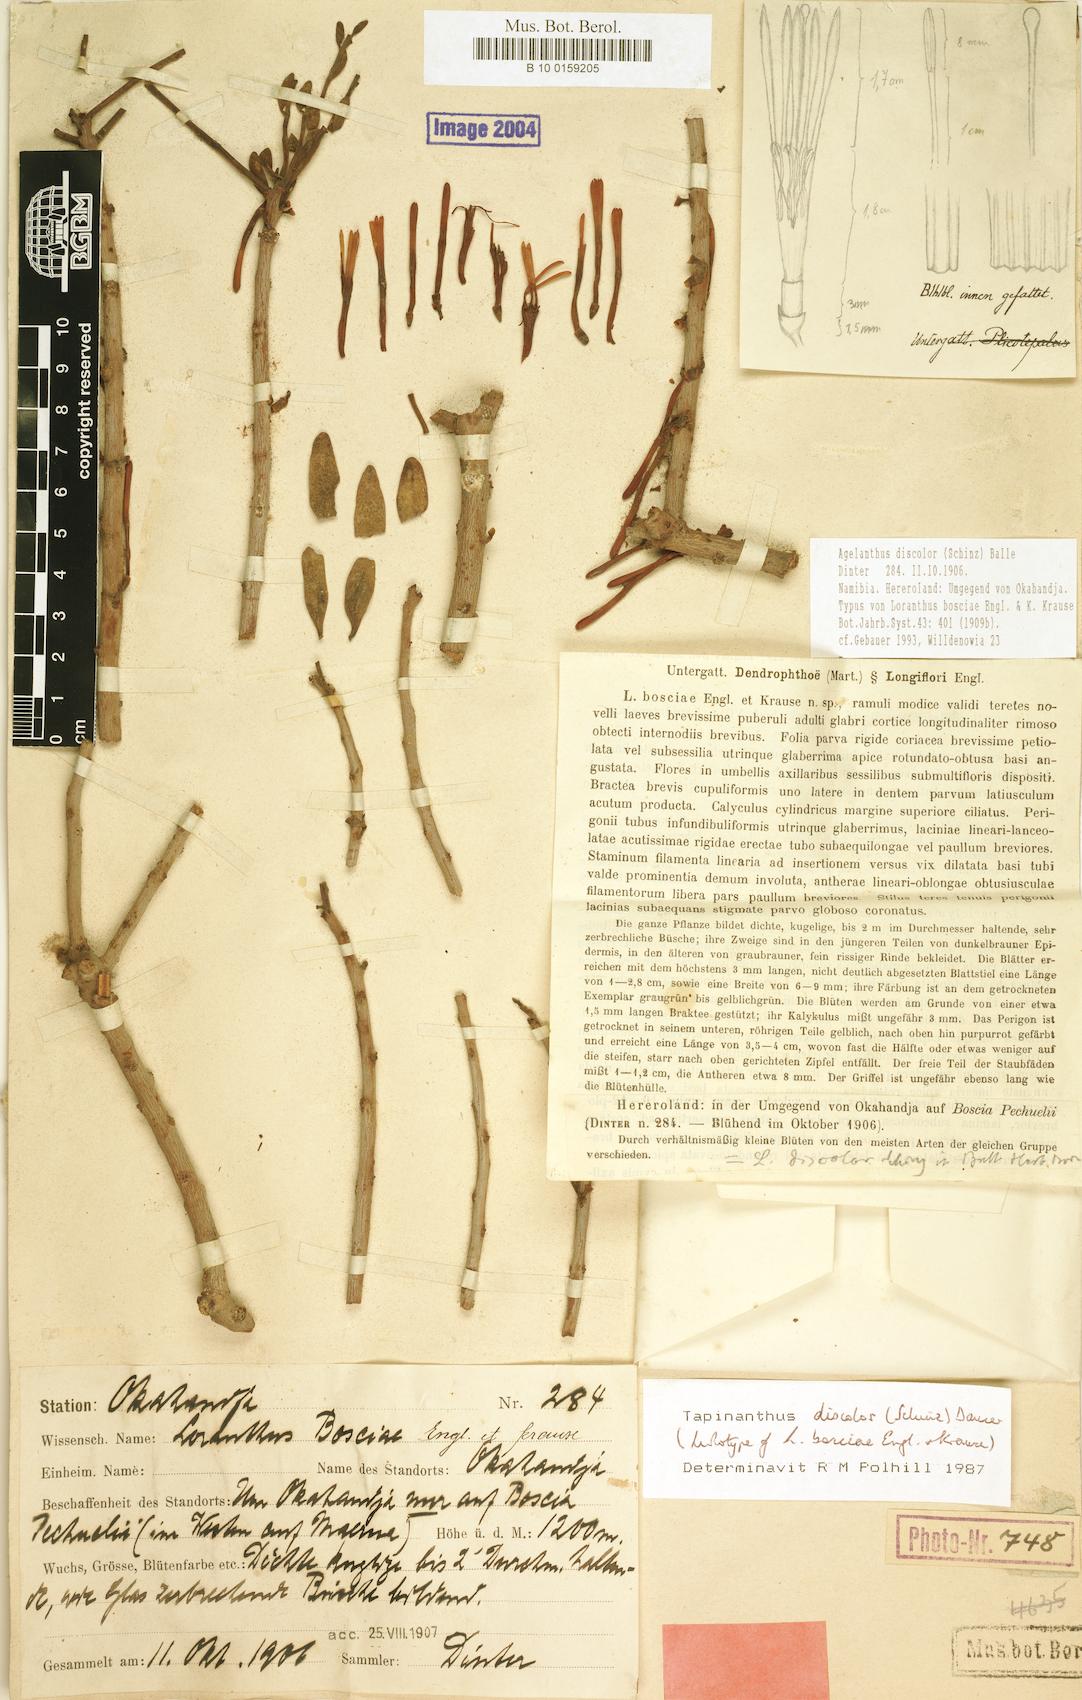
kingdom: Plantae
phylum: Tracheophyta
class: Magnoliopsida
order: Santalales
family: Loranthaceae
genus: Agelanthus
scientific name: Agelanthus discolor
